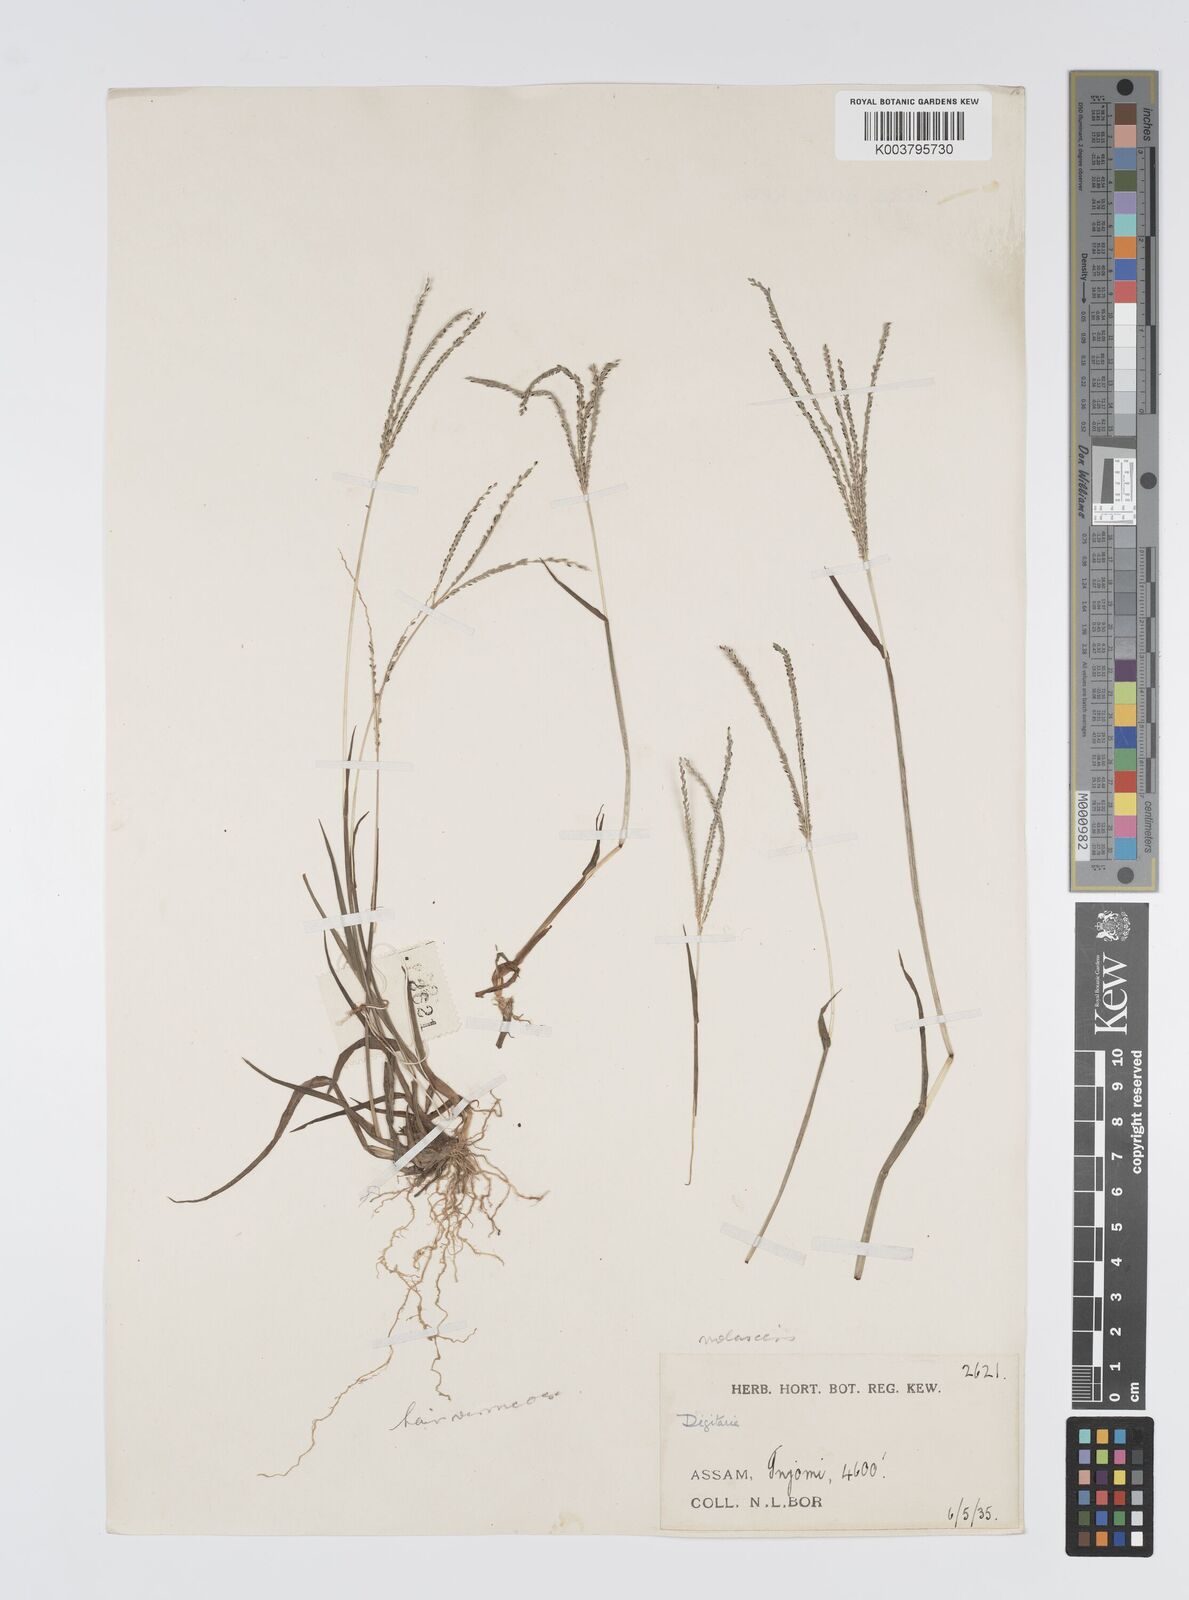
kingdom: Plantae
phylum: Tracheophyta
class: Liliopsida
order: Poales
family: Poaceae
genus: Digitaria
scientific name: Digitaria violascens
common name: Violet crabgrass
